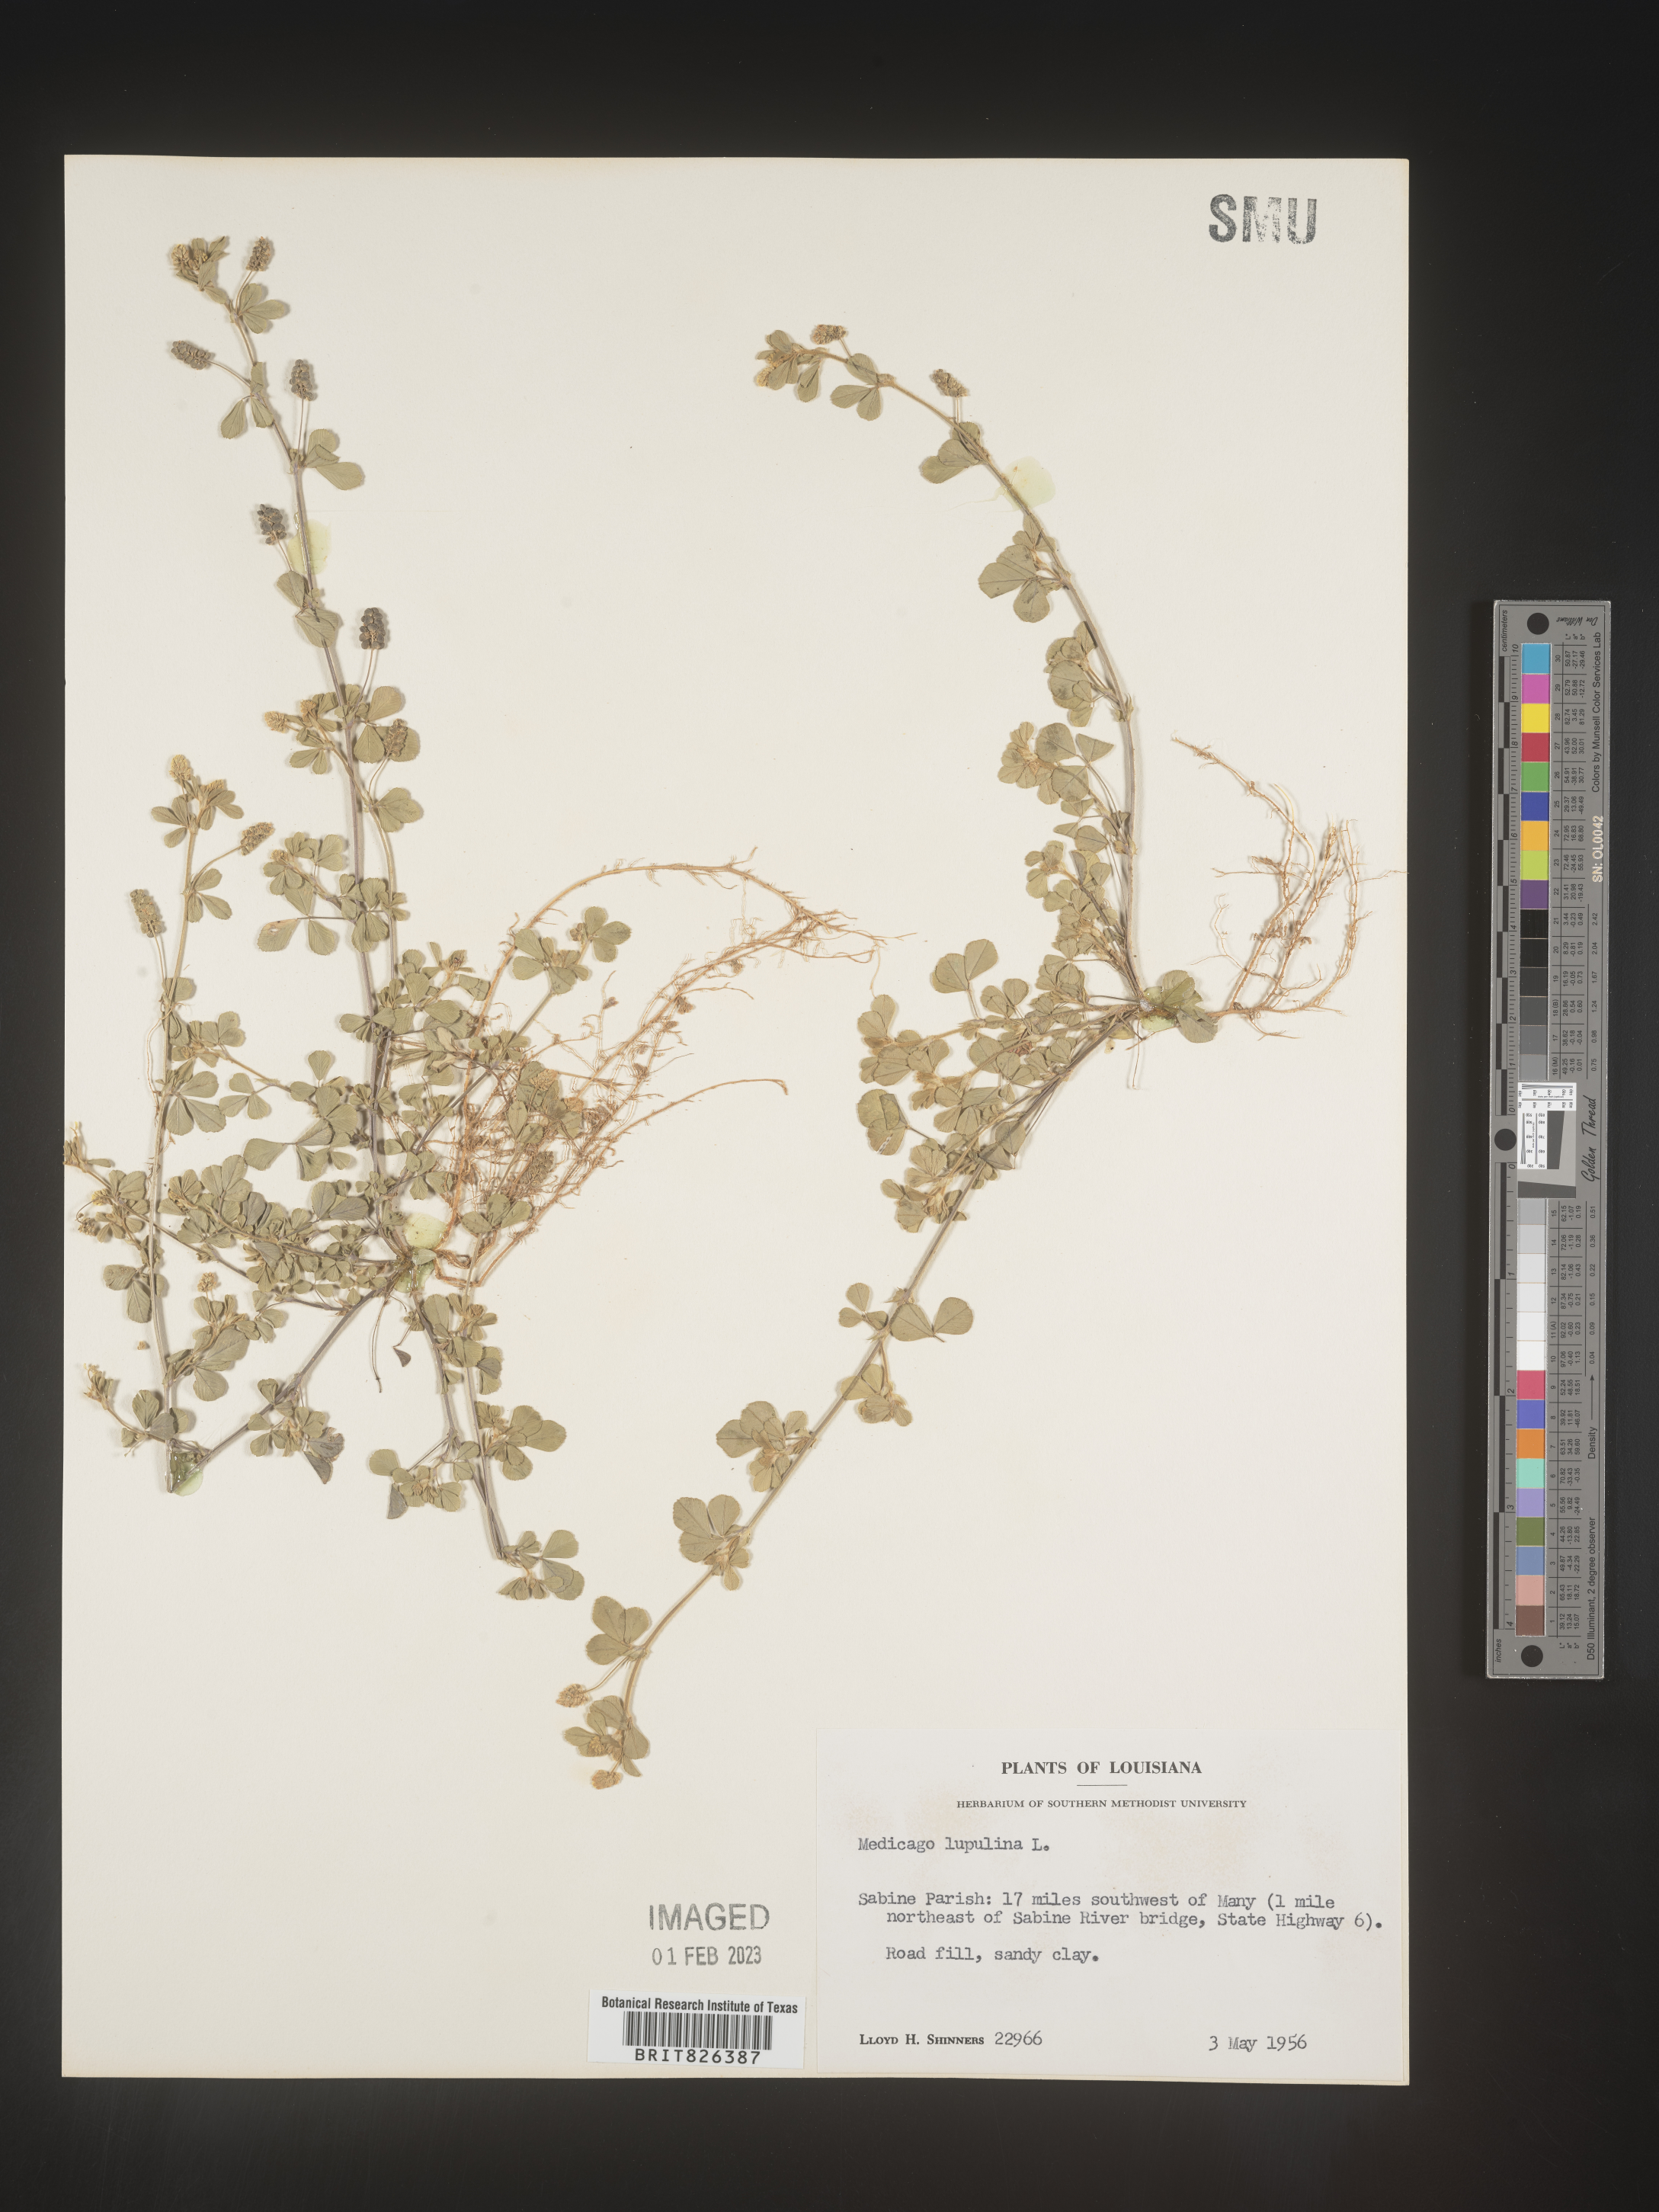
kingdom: Plantae
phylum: Tracheophyta
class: Magnoliopsida
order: Fabales
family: Fabaceae
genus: Medicago
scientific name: Medicago lupulina
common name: Black medick
